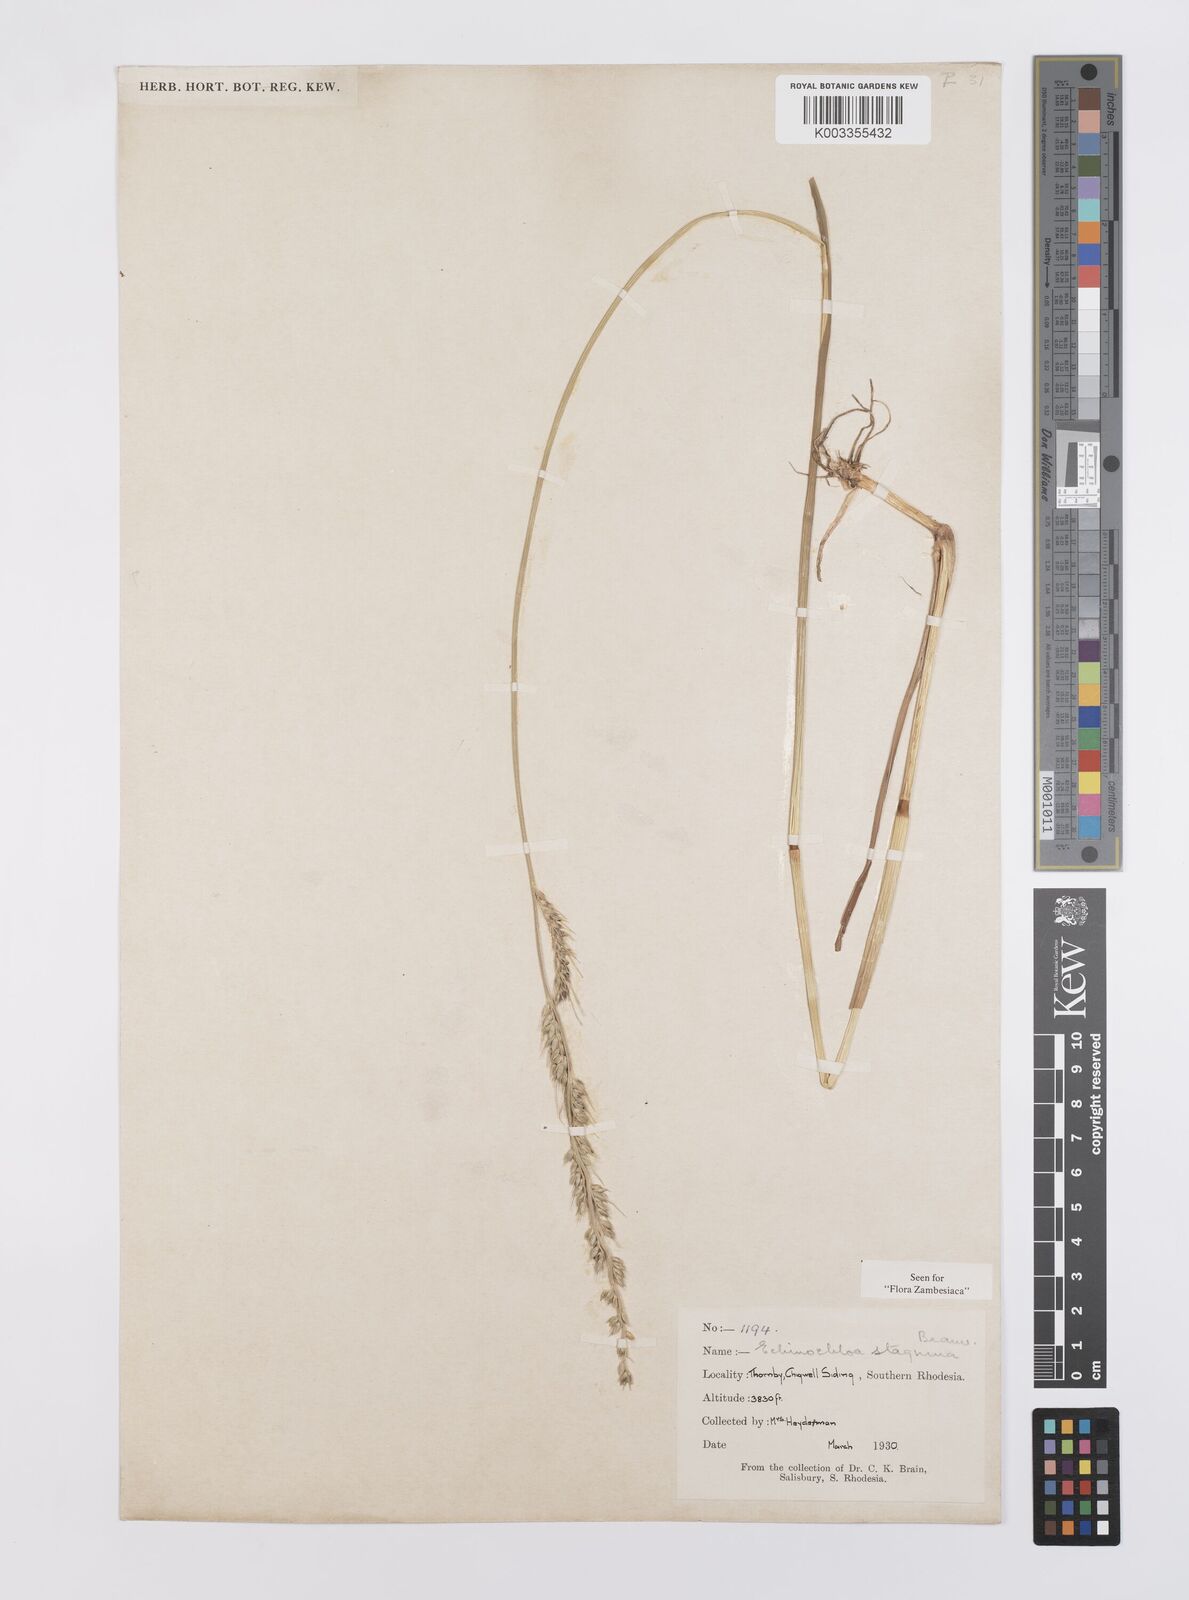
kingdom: Plantae
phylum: Tracheophyta
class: Liliopsida
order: Poales
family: Poaceae
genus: Echinochloa
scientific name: Echinochloa stagnina
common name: Burgu grass
